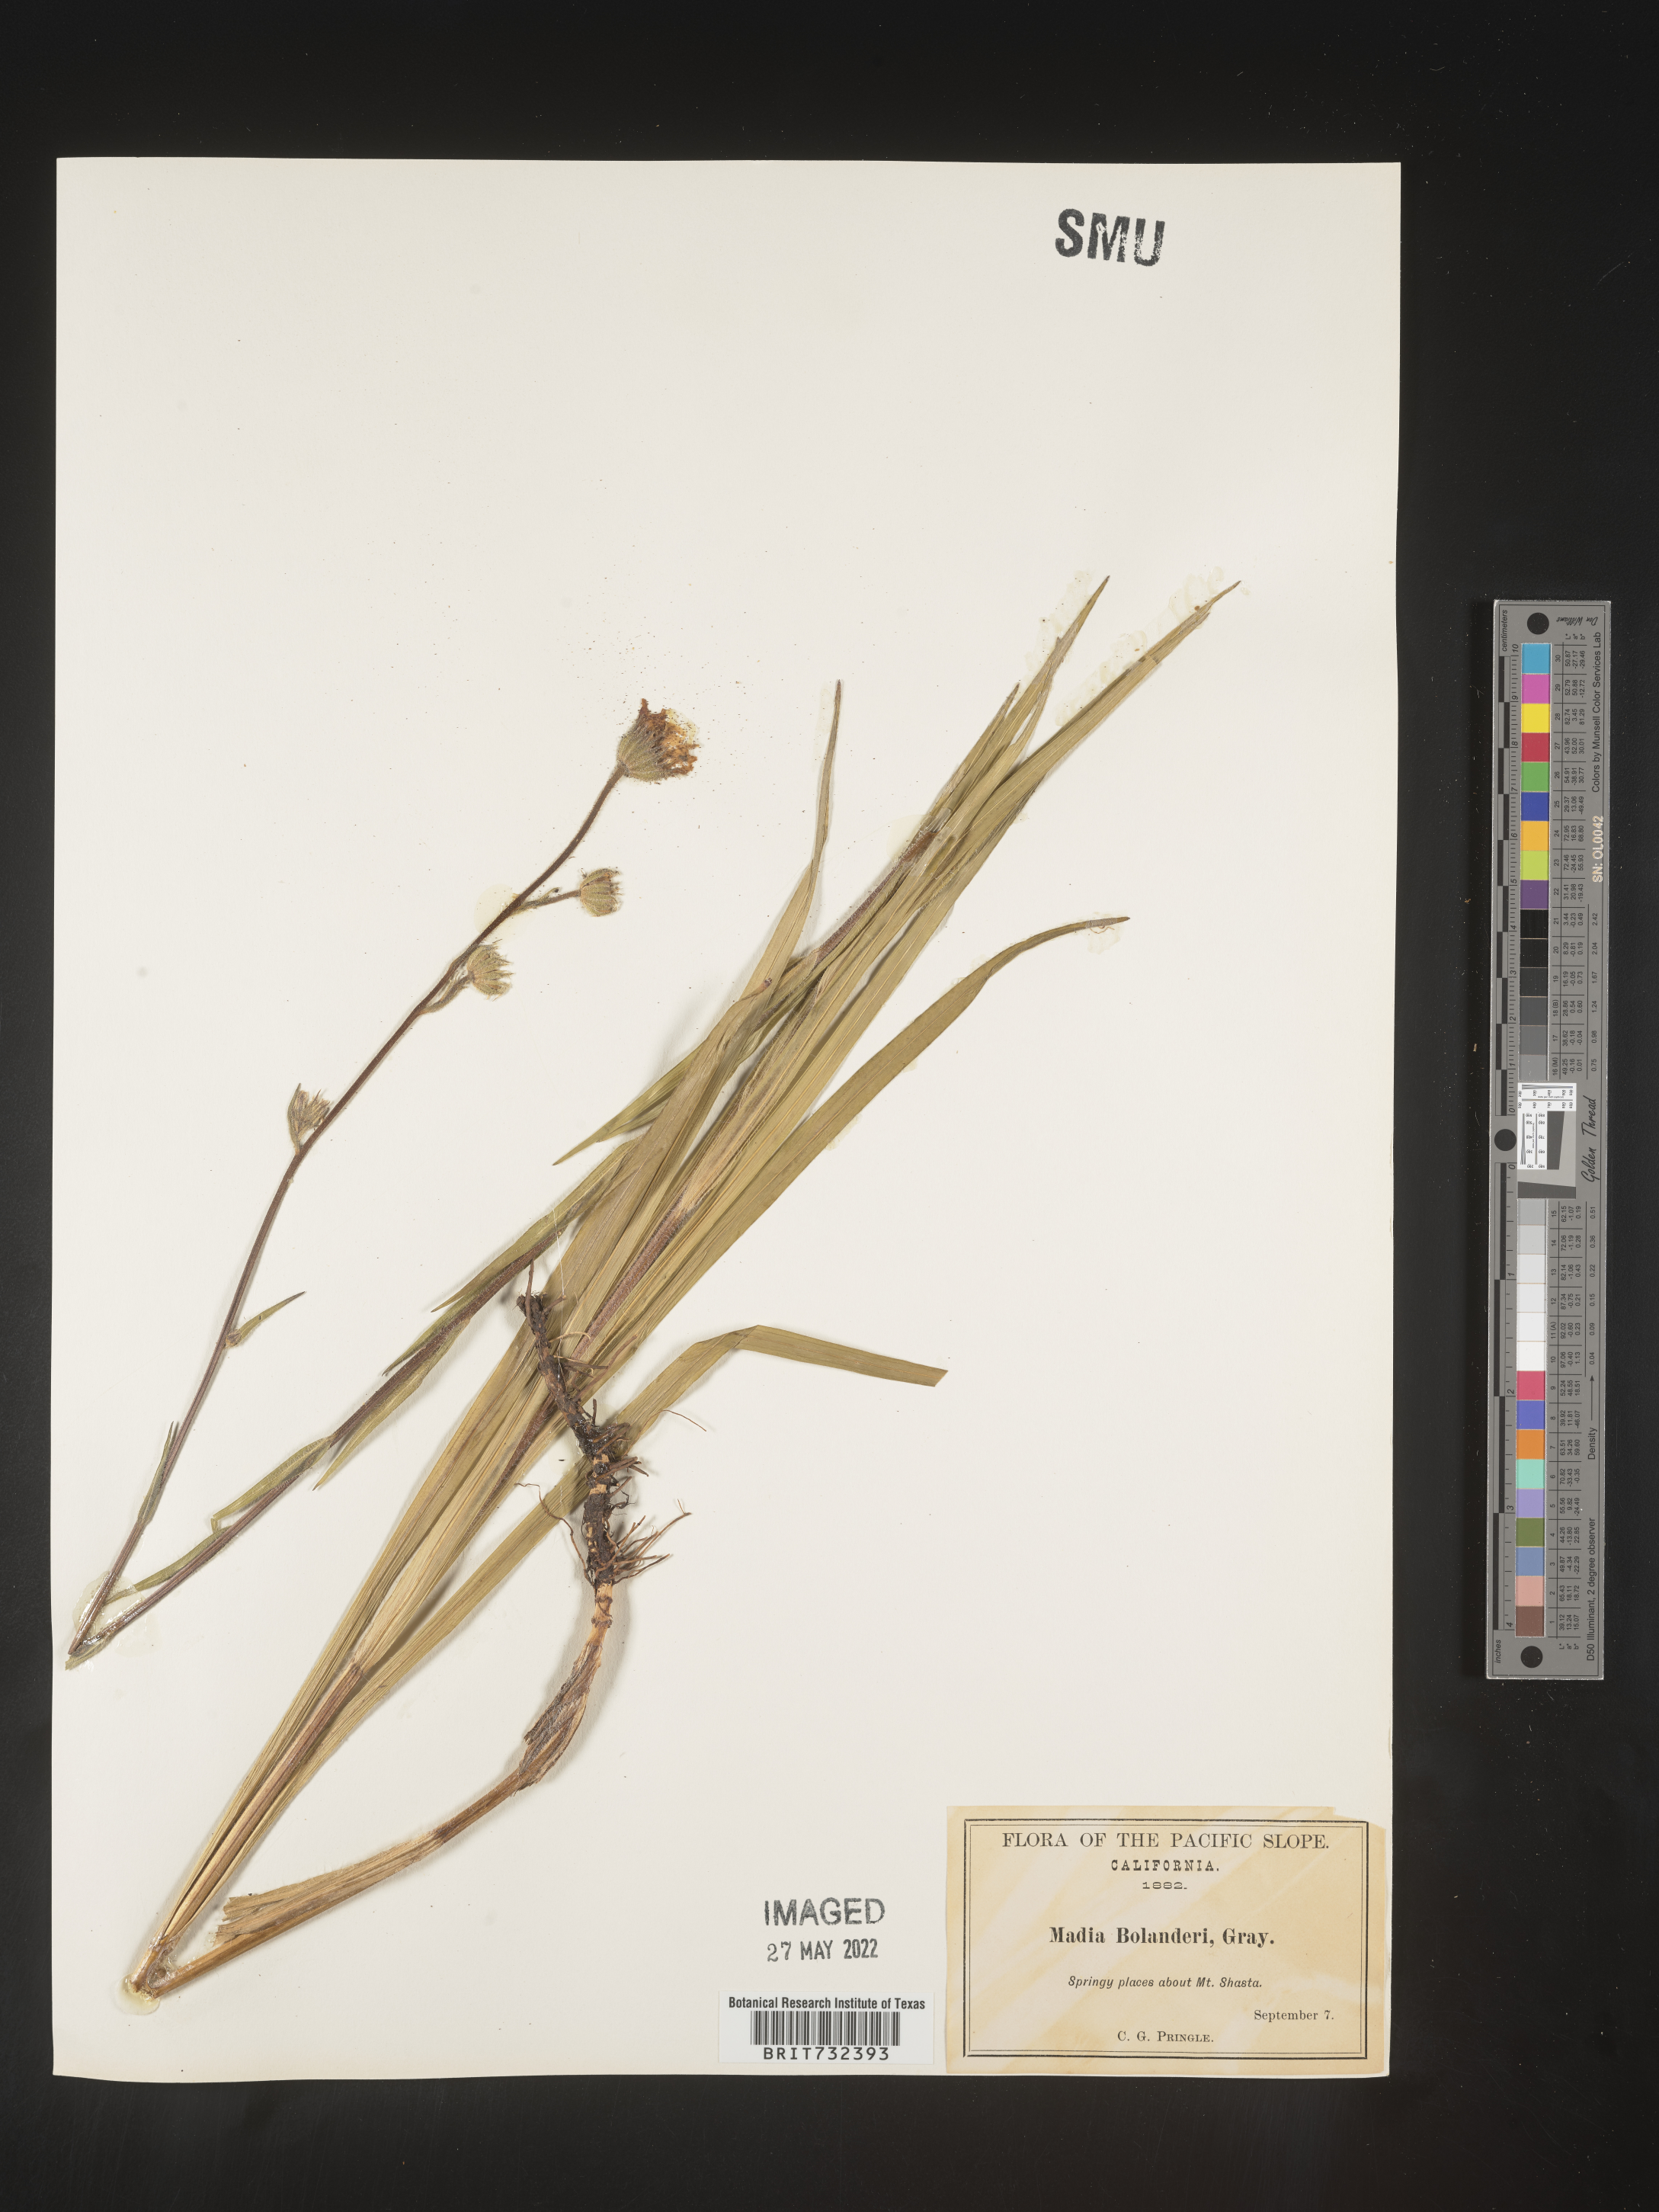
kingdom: Plantae
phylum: Tracheophyta
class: Magnoliopsida
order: Asterales
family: Asteraceae
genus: Kyhosia
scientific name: Kyhosia bolanderi
